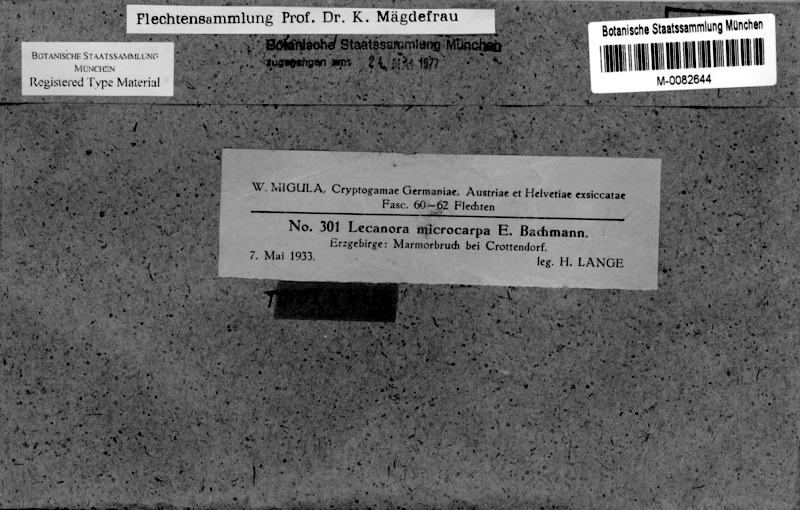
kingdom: Fungi
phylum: Ascomycota
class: Lecanoromycetes
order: Lecanorales
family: Lecanoraceae
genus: Lecanora
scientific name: Lecanora microcarpa
